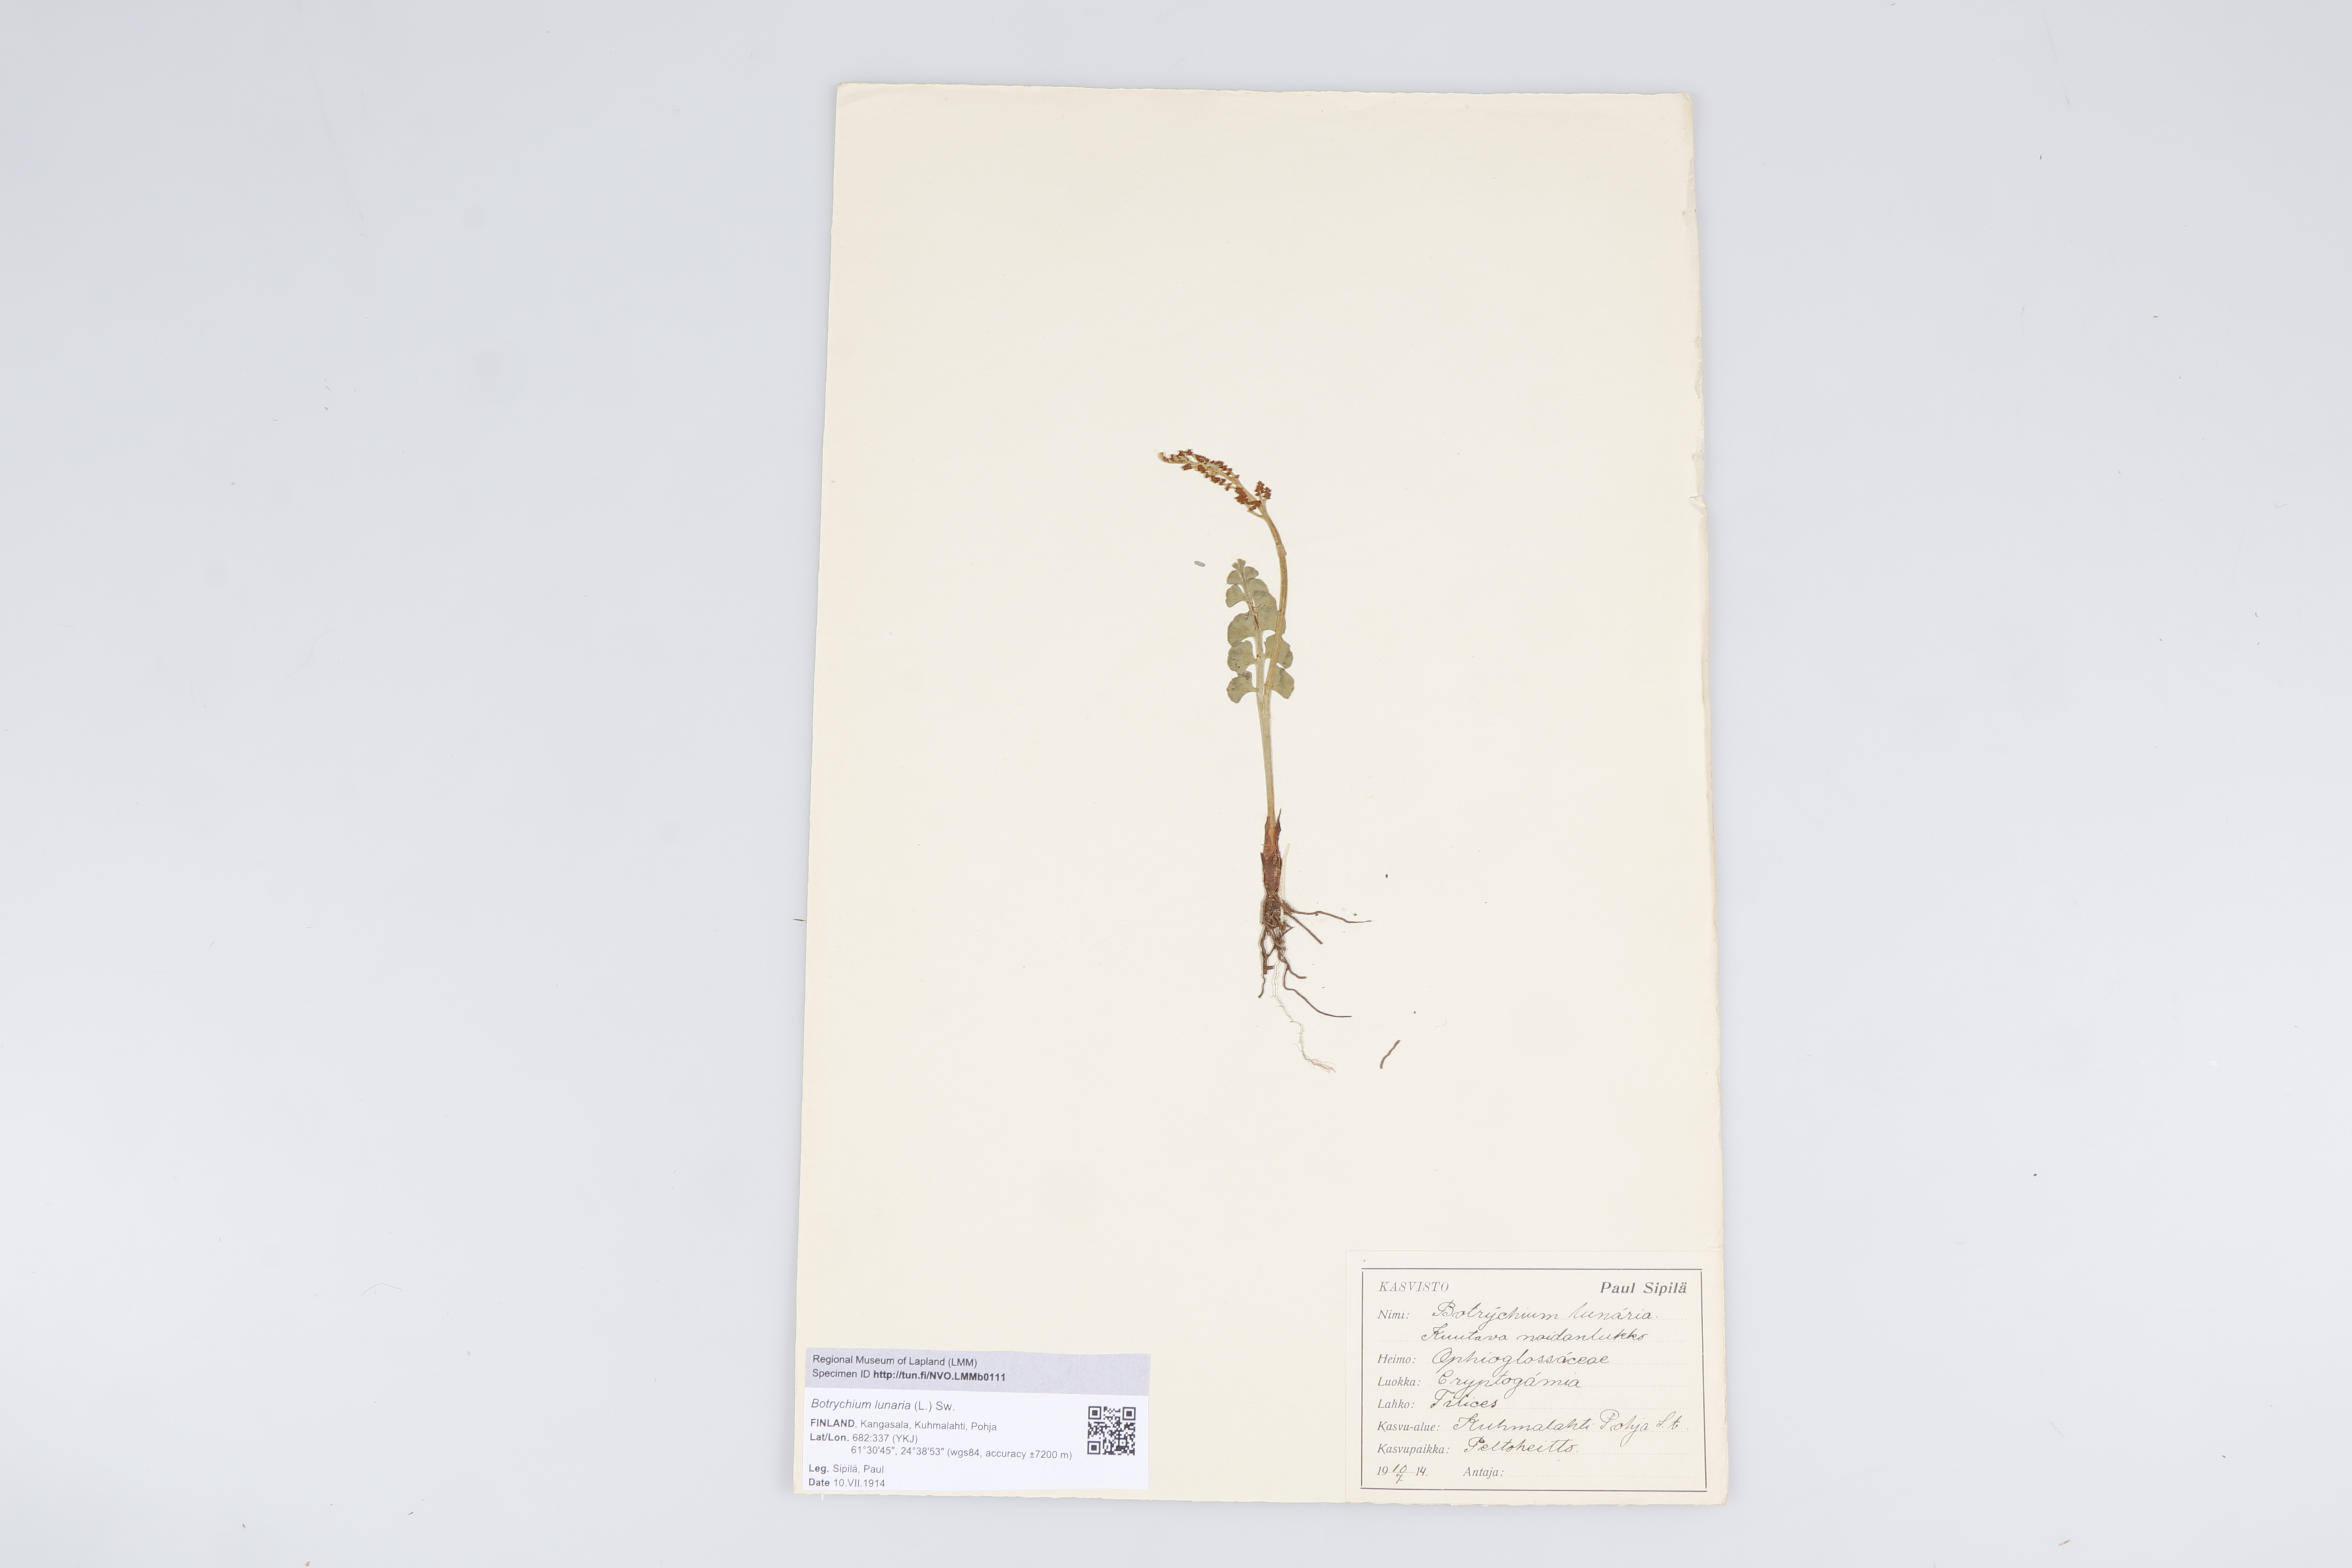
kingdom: Plantae
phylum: Tracheophyta
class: Polypodiopsida
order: Ophioglossales
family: Ophioglossaceae
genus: Botrychium
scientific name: Botrychium lunaria
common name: Moonwort
